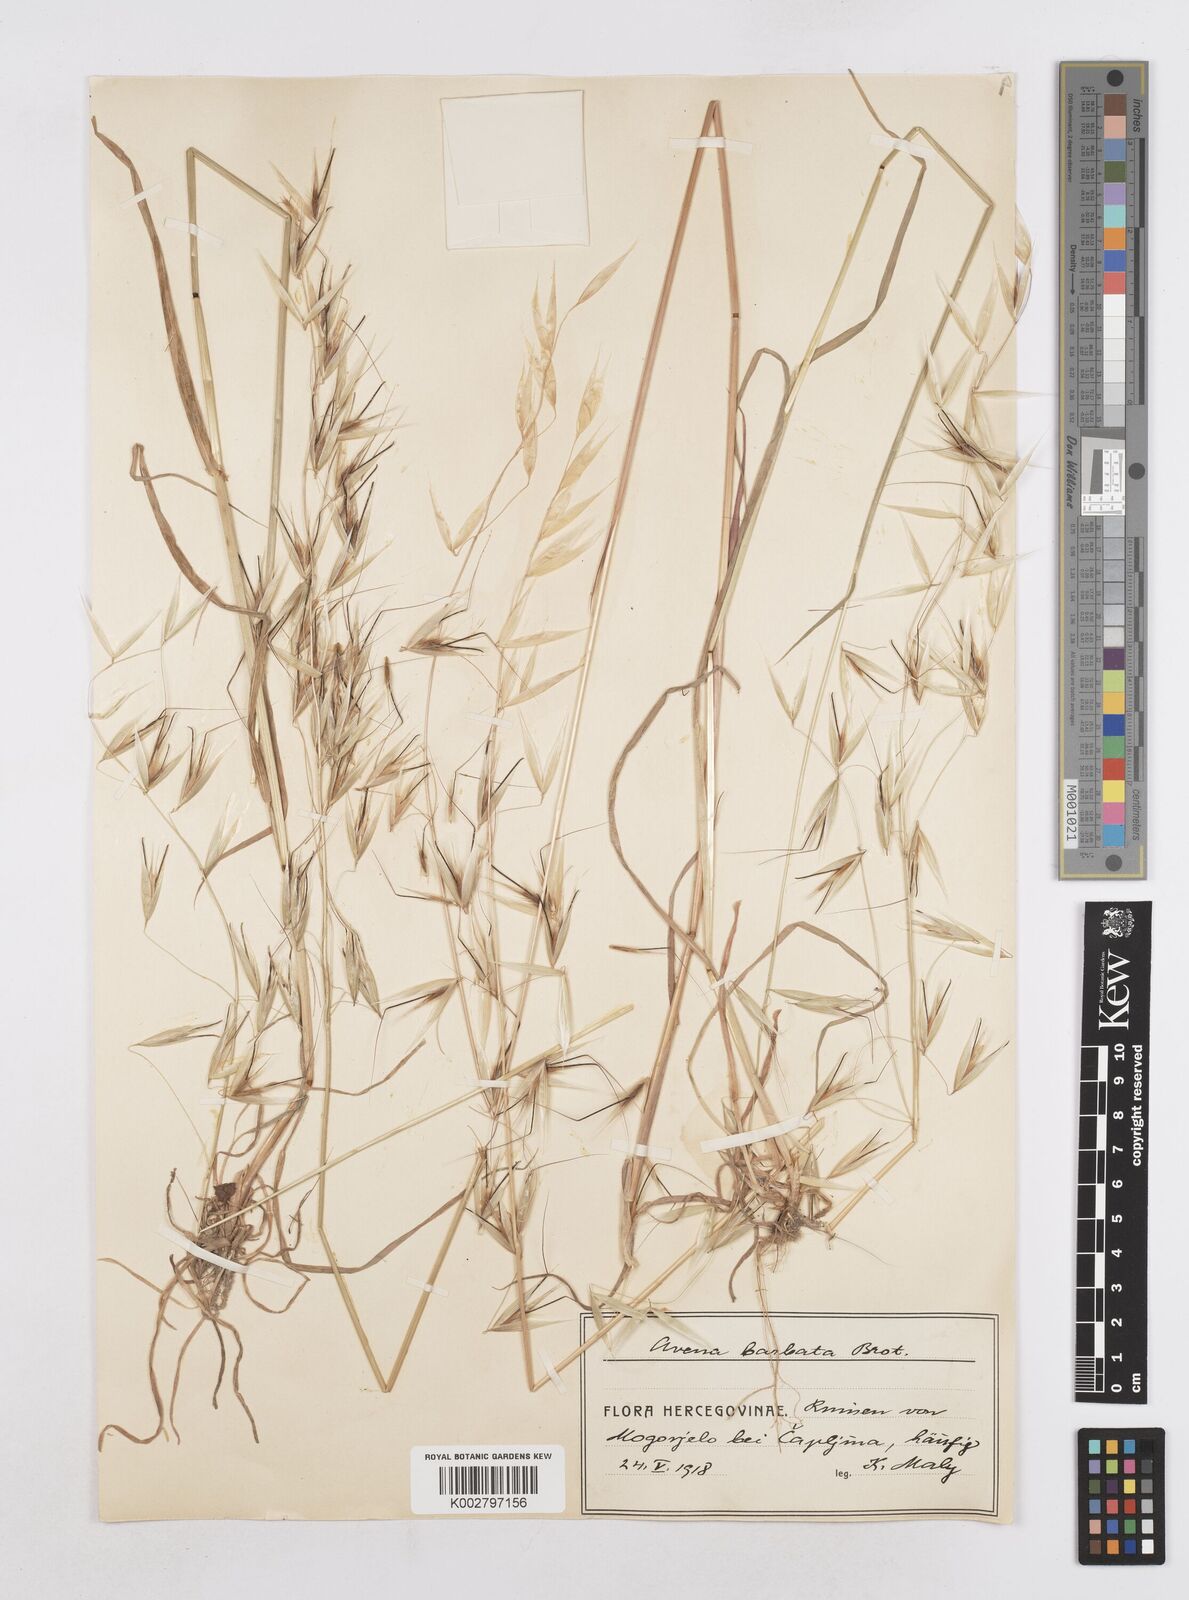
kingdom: Plantae
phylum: Tracheophyta
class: Liliopsida
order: Poales
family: Poaceae
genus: Avena
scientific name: Avena
